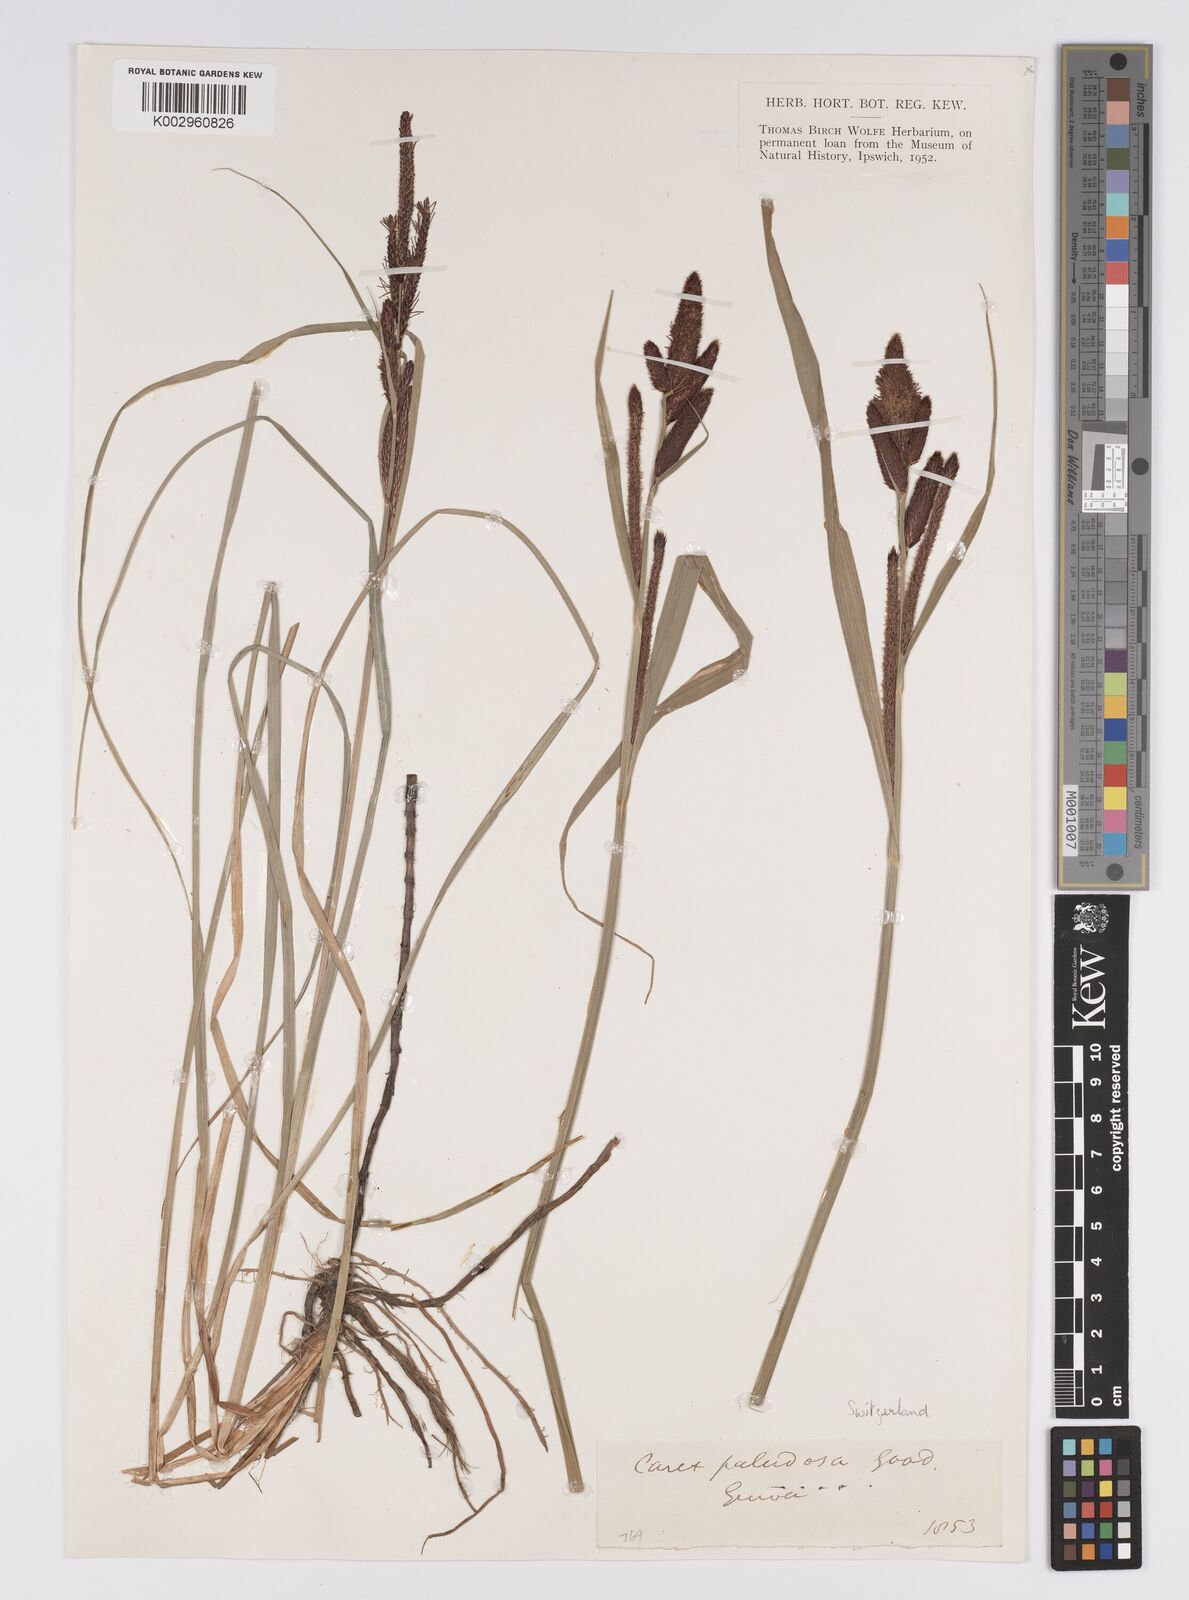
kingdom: Plantae
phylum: Tracheophyta
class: Liliopsida
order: Poales
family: Cyperaceae
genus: Carex
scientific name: Carex acutiformis
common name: Lesser pond-sedge
